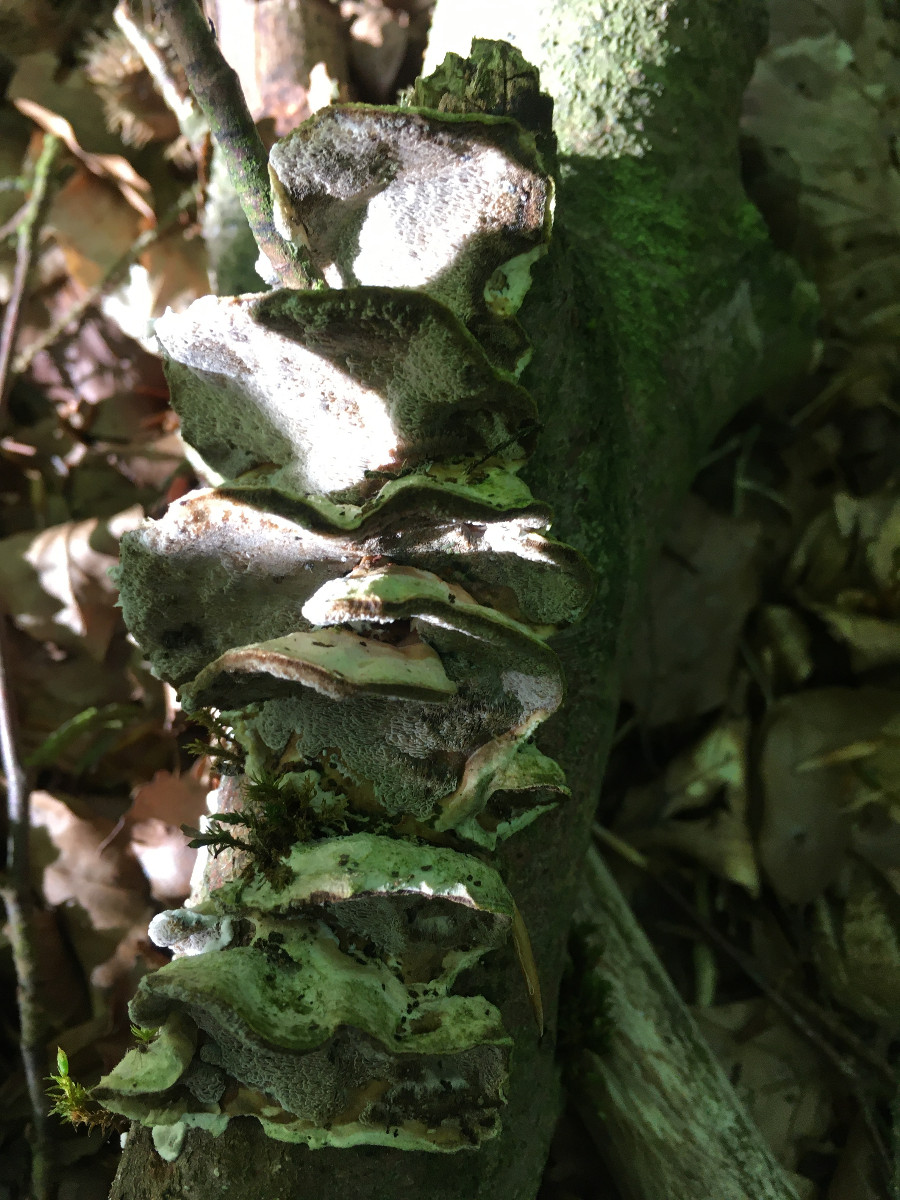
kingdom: Fungi
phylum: Basidiomycota
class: Agaricomycetes
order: Polyporales
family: Phanerochaetaceae
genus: Bjerkandera
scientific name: Bjerkandera adusta
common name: sveden sodporesvamp
